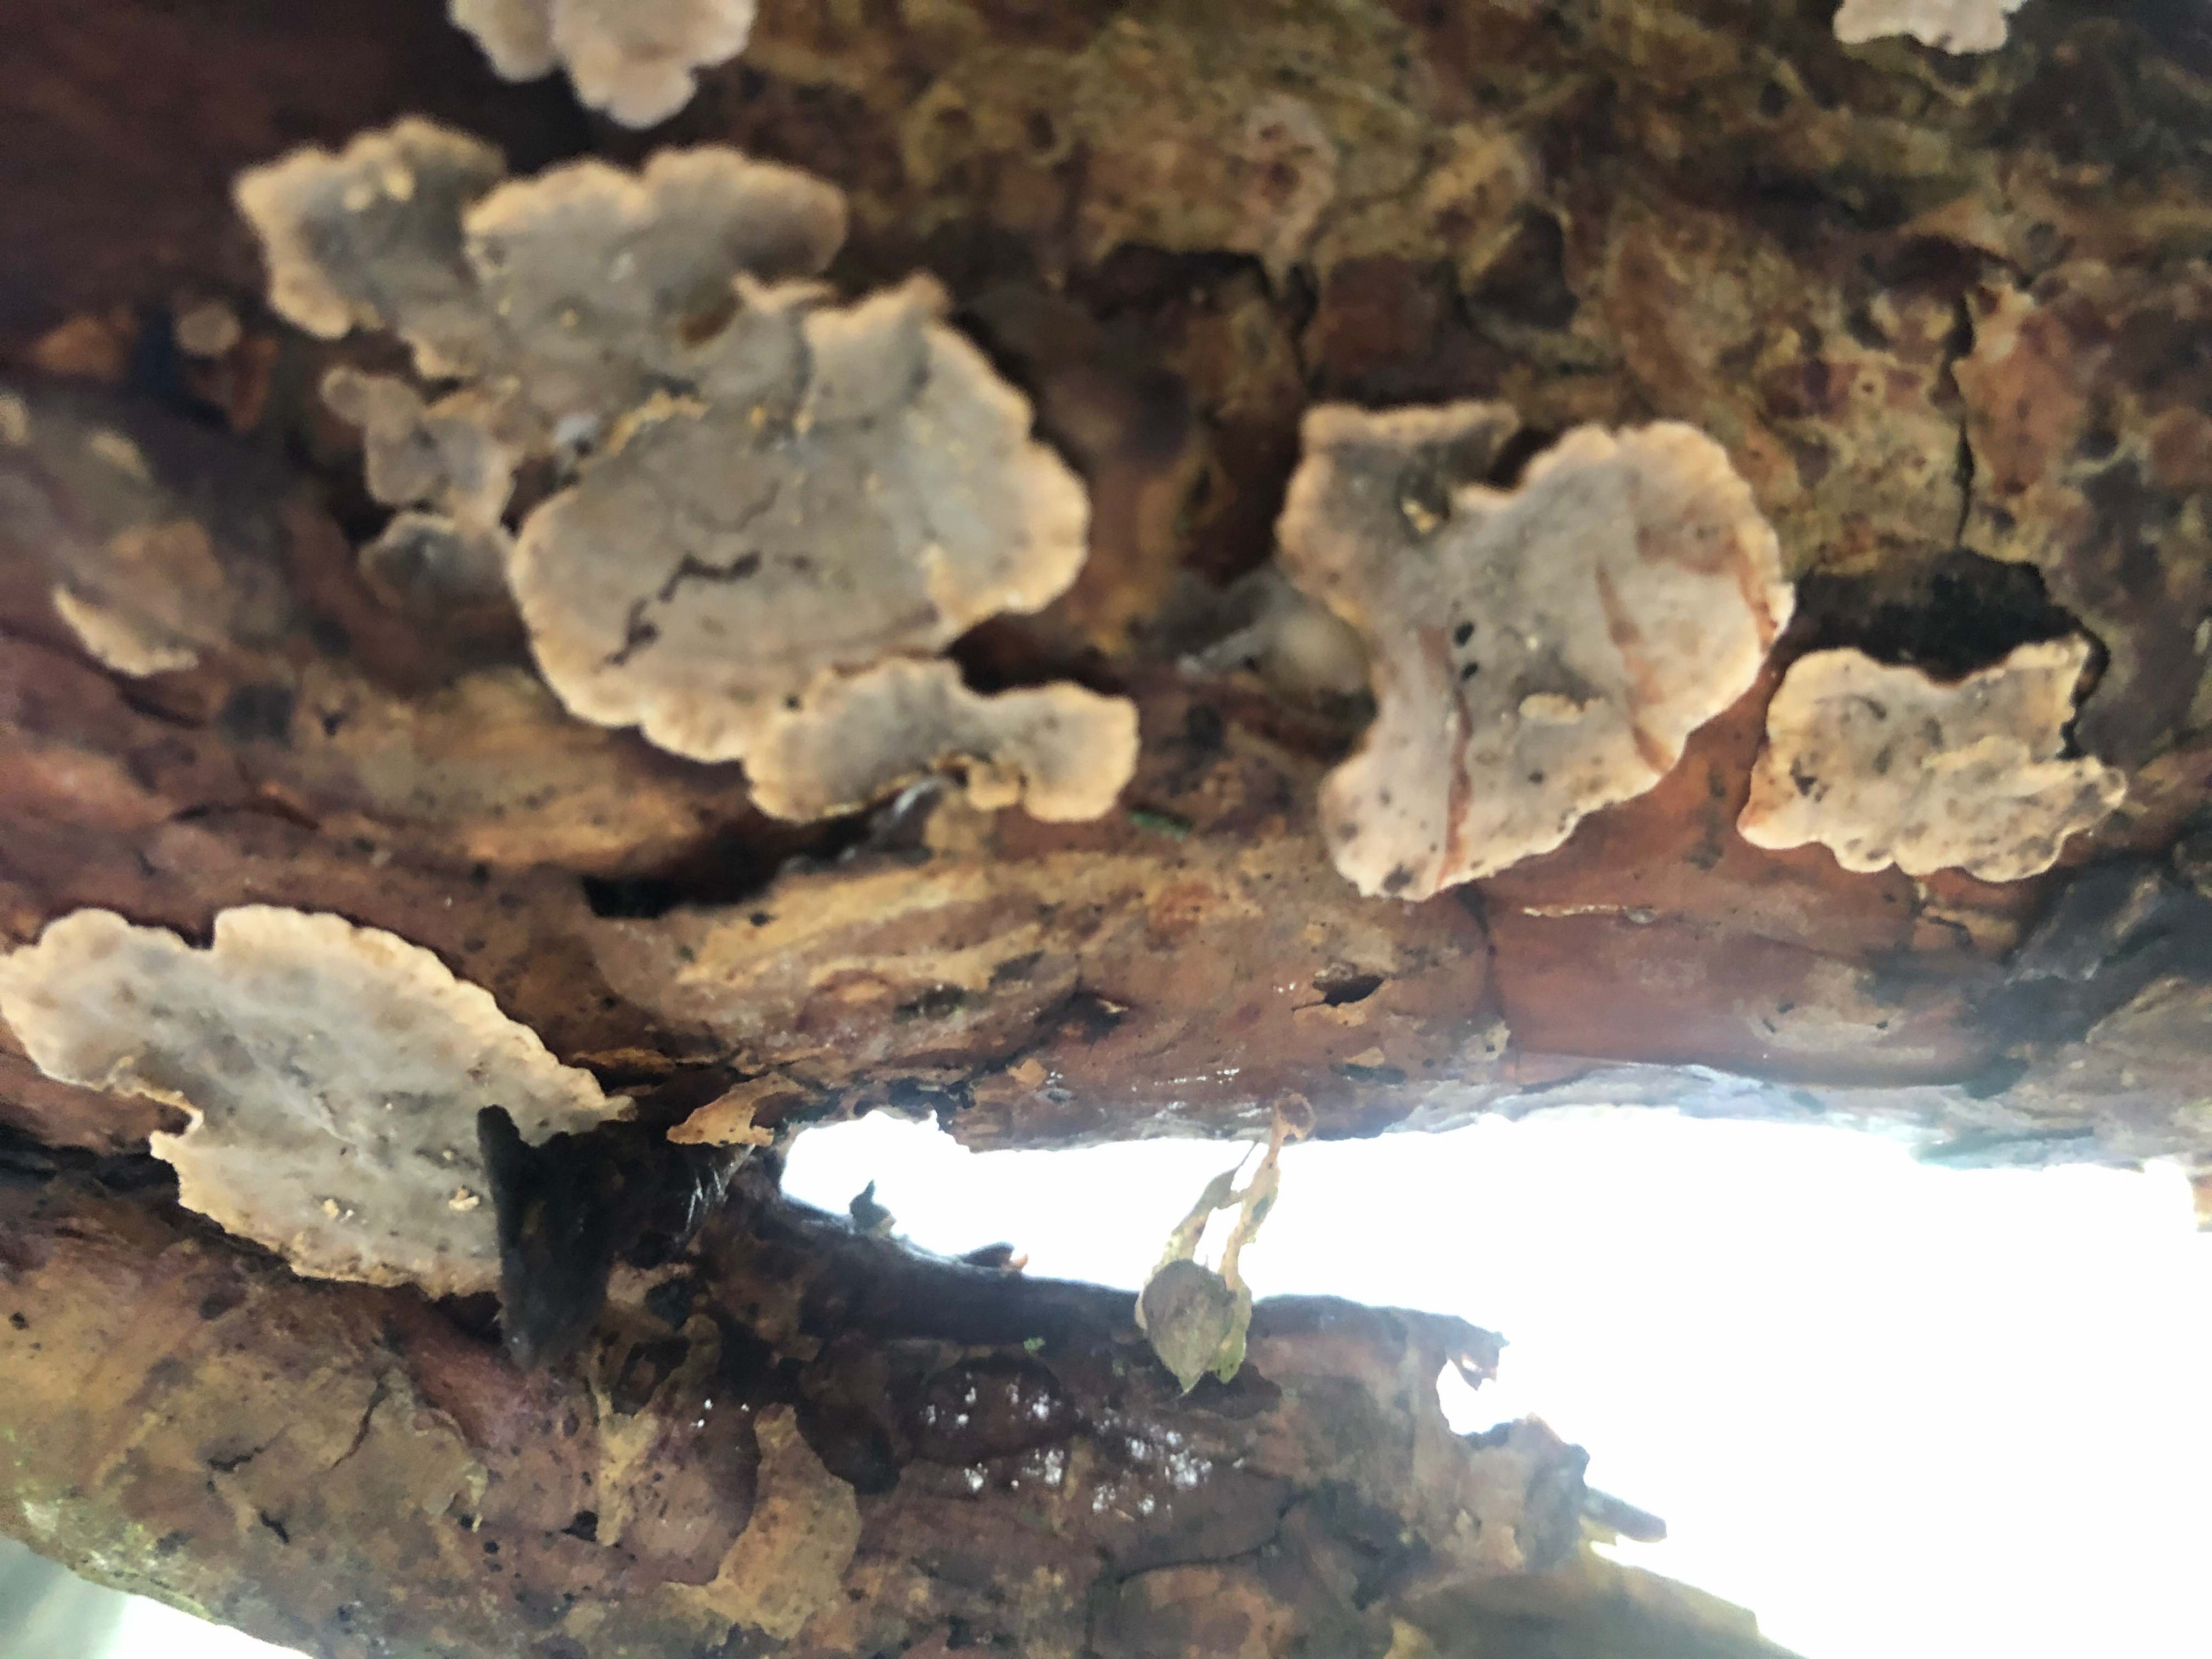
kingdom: Fungi
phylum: Basidiomycota
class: Agaricomycetes
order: Russulales
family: Stereaceae
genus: Stereum
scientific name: Stereum sanguinolentum
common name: blødende lædersvamp
